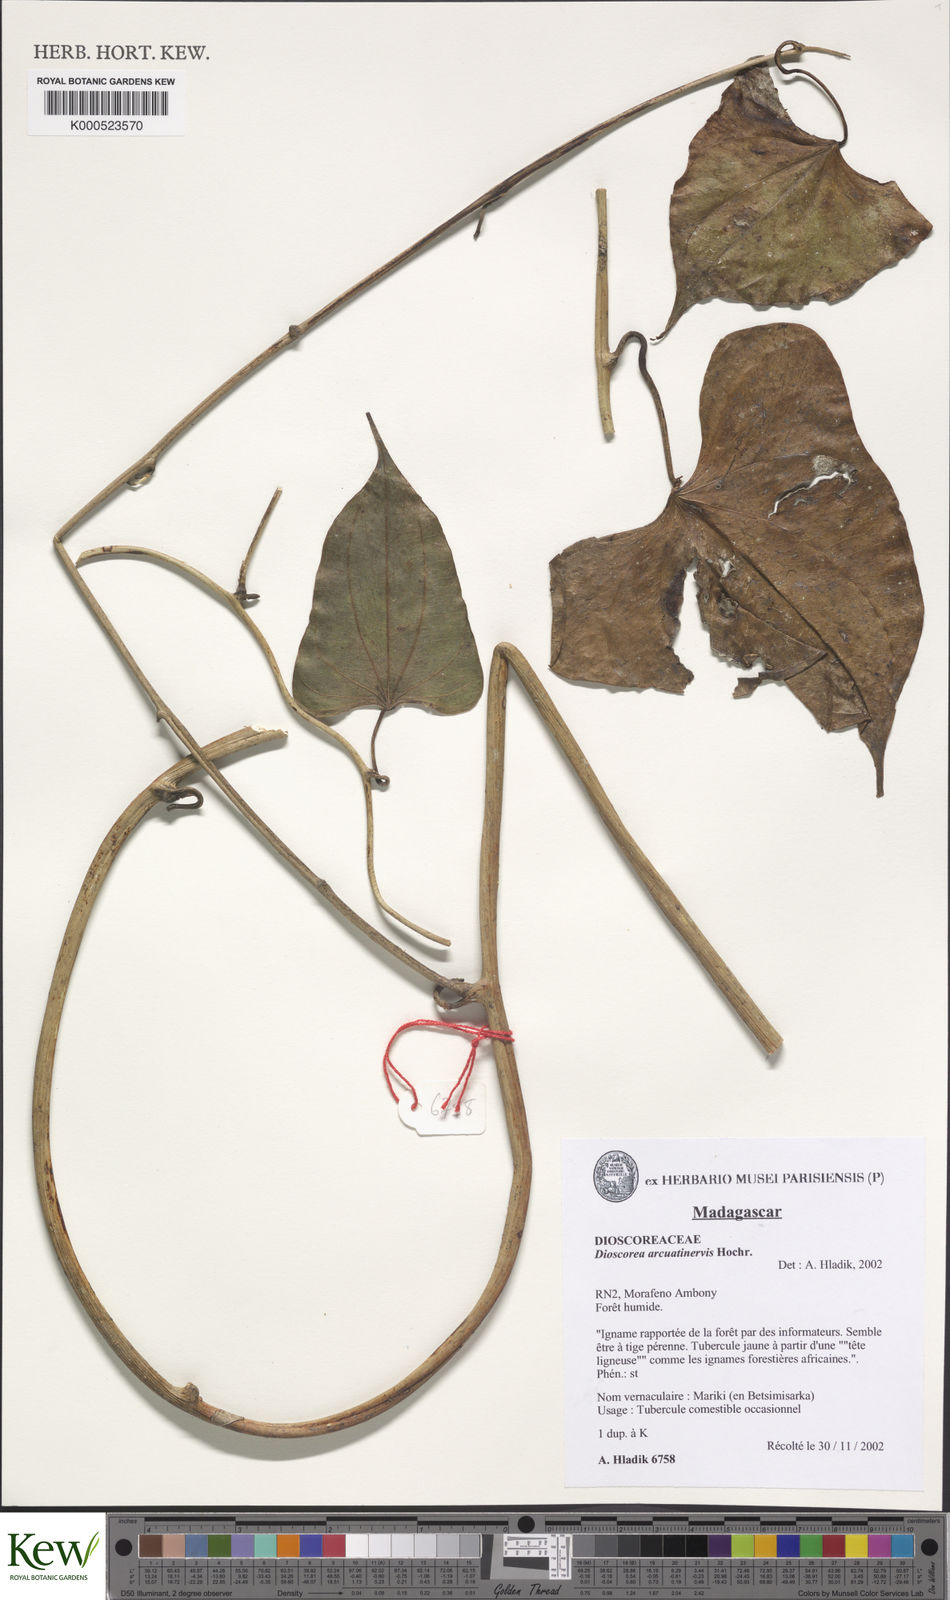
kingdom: Plantae
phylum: Tracheophyta
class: Liliopsida
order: Dioscoreales
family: Dioscoreaceae
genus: Dioscorea
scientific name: Dioscorea arcuatinervis
